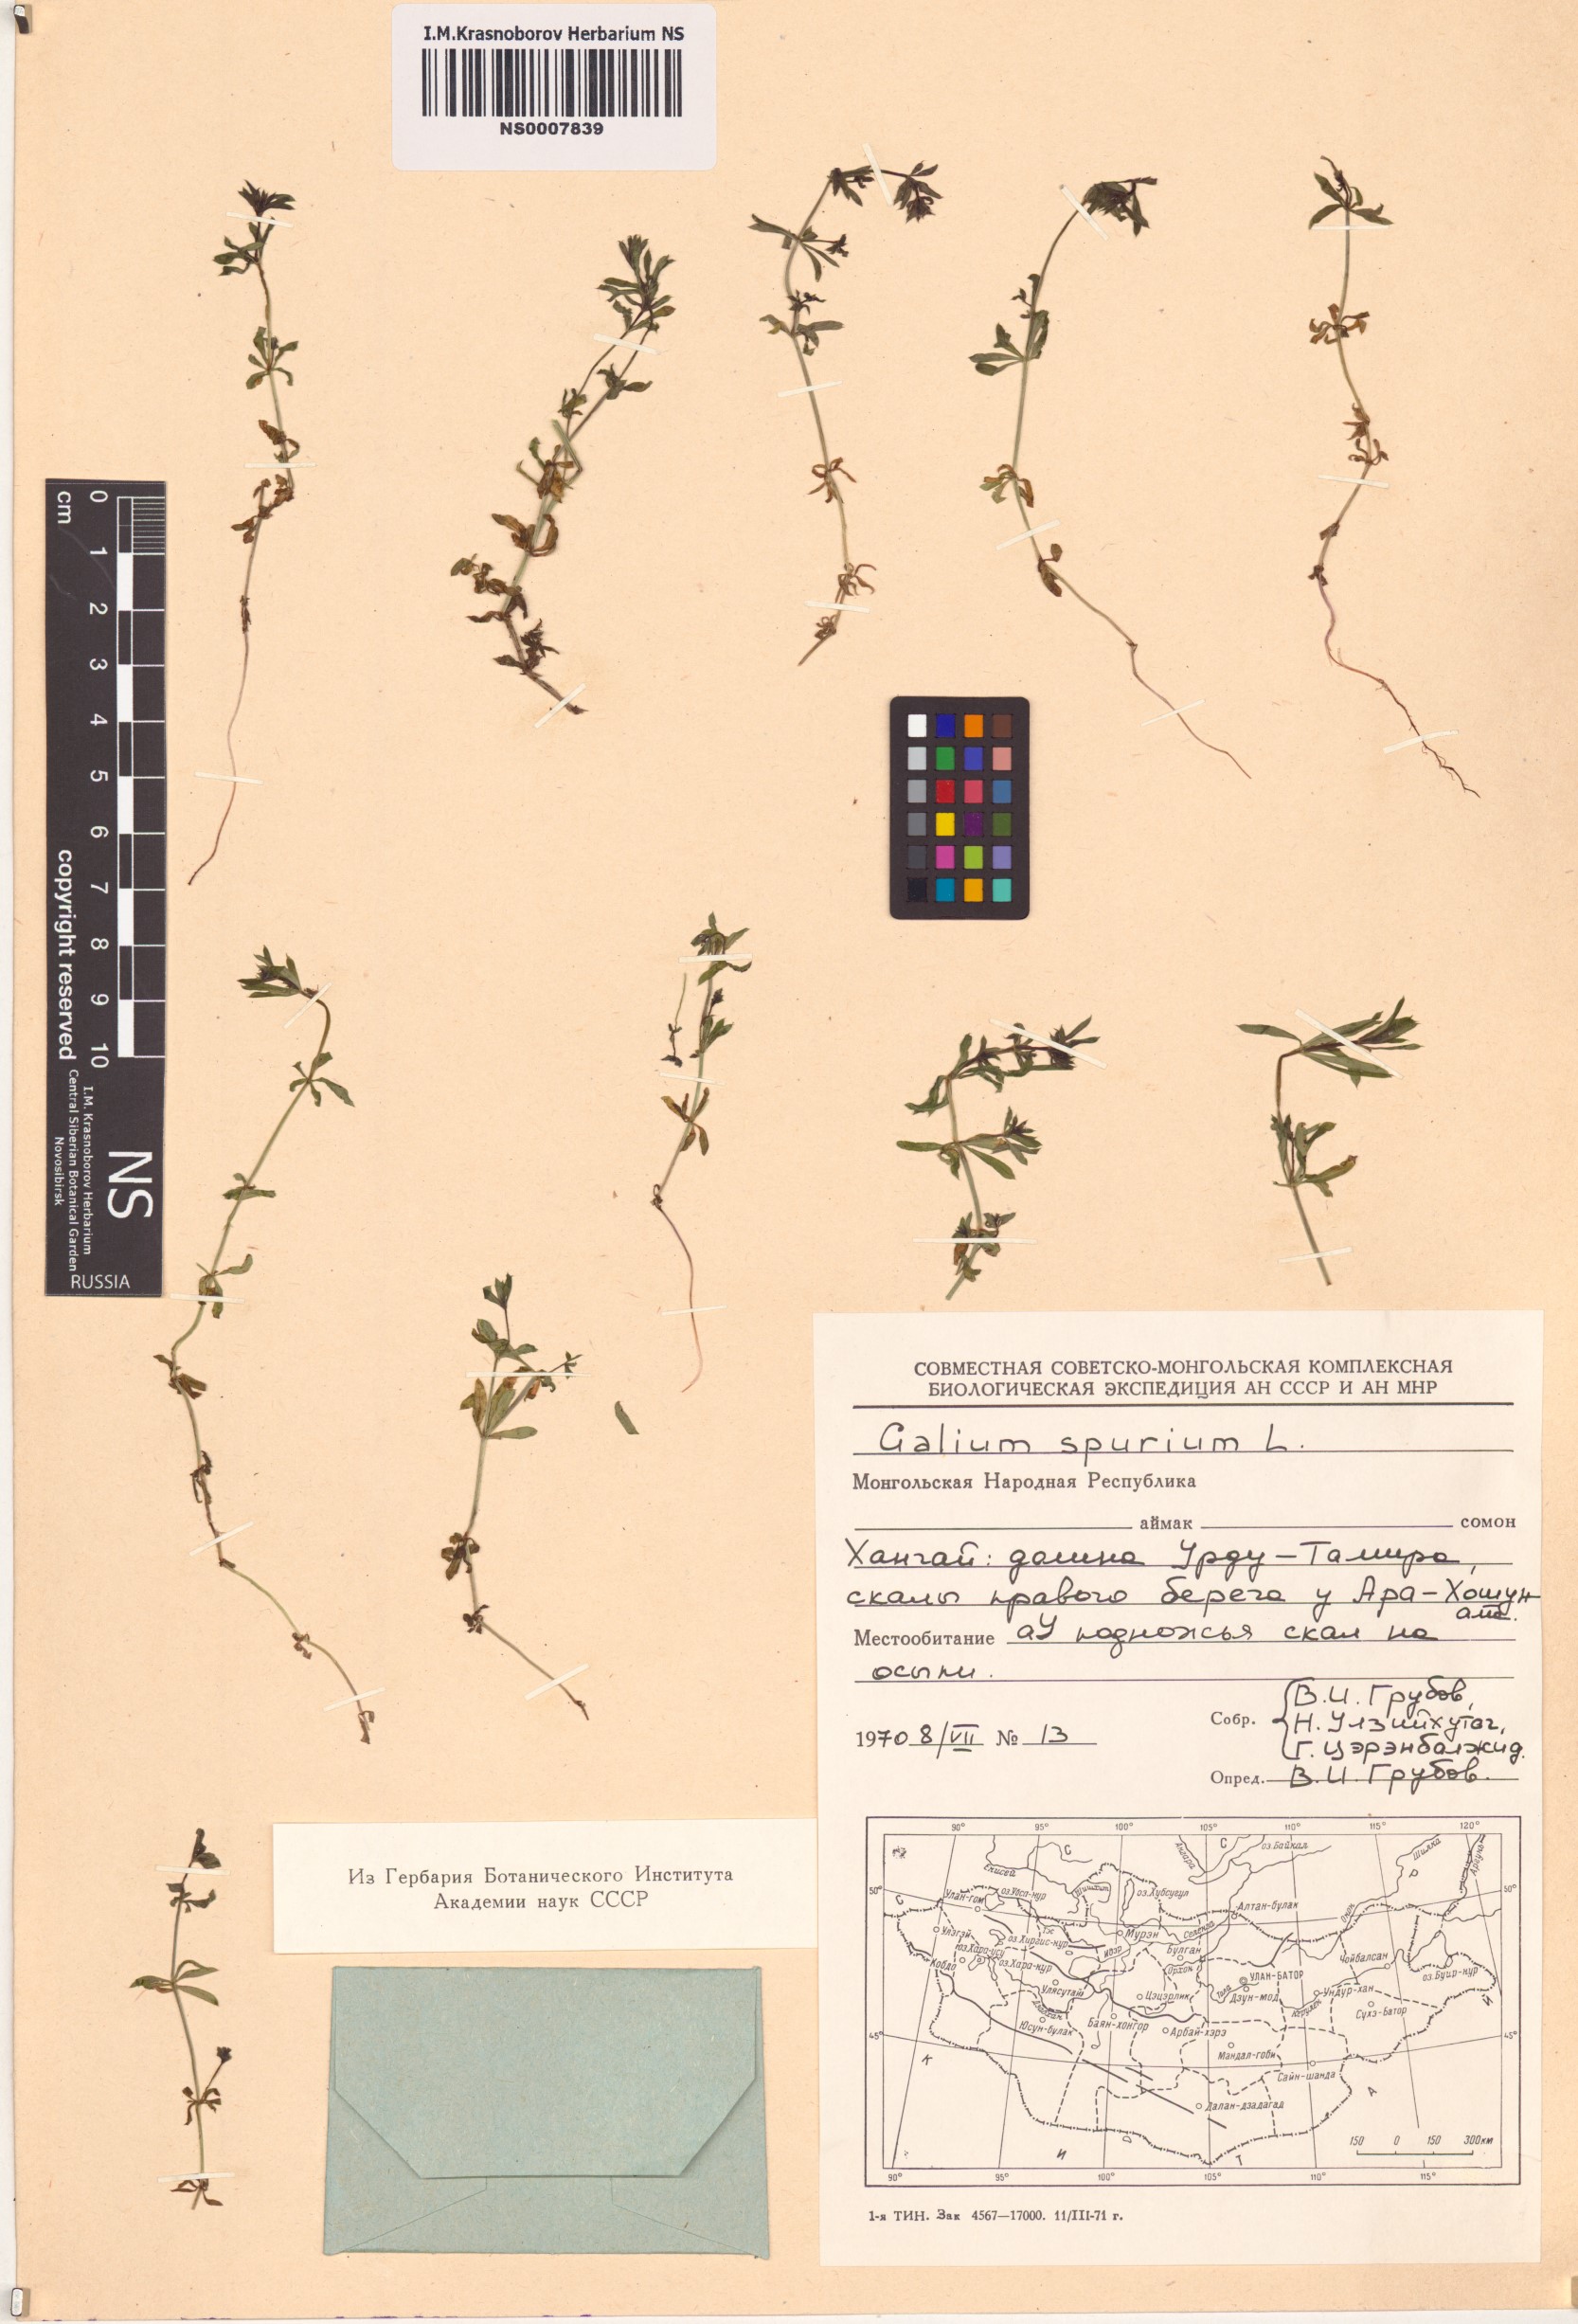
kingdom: Plantae
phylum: Tracheophyta
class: Magnoliopsida
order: Gentianales
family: Rubiaceae
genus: Galium
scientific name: Galium spurium
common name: False cleavers
